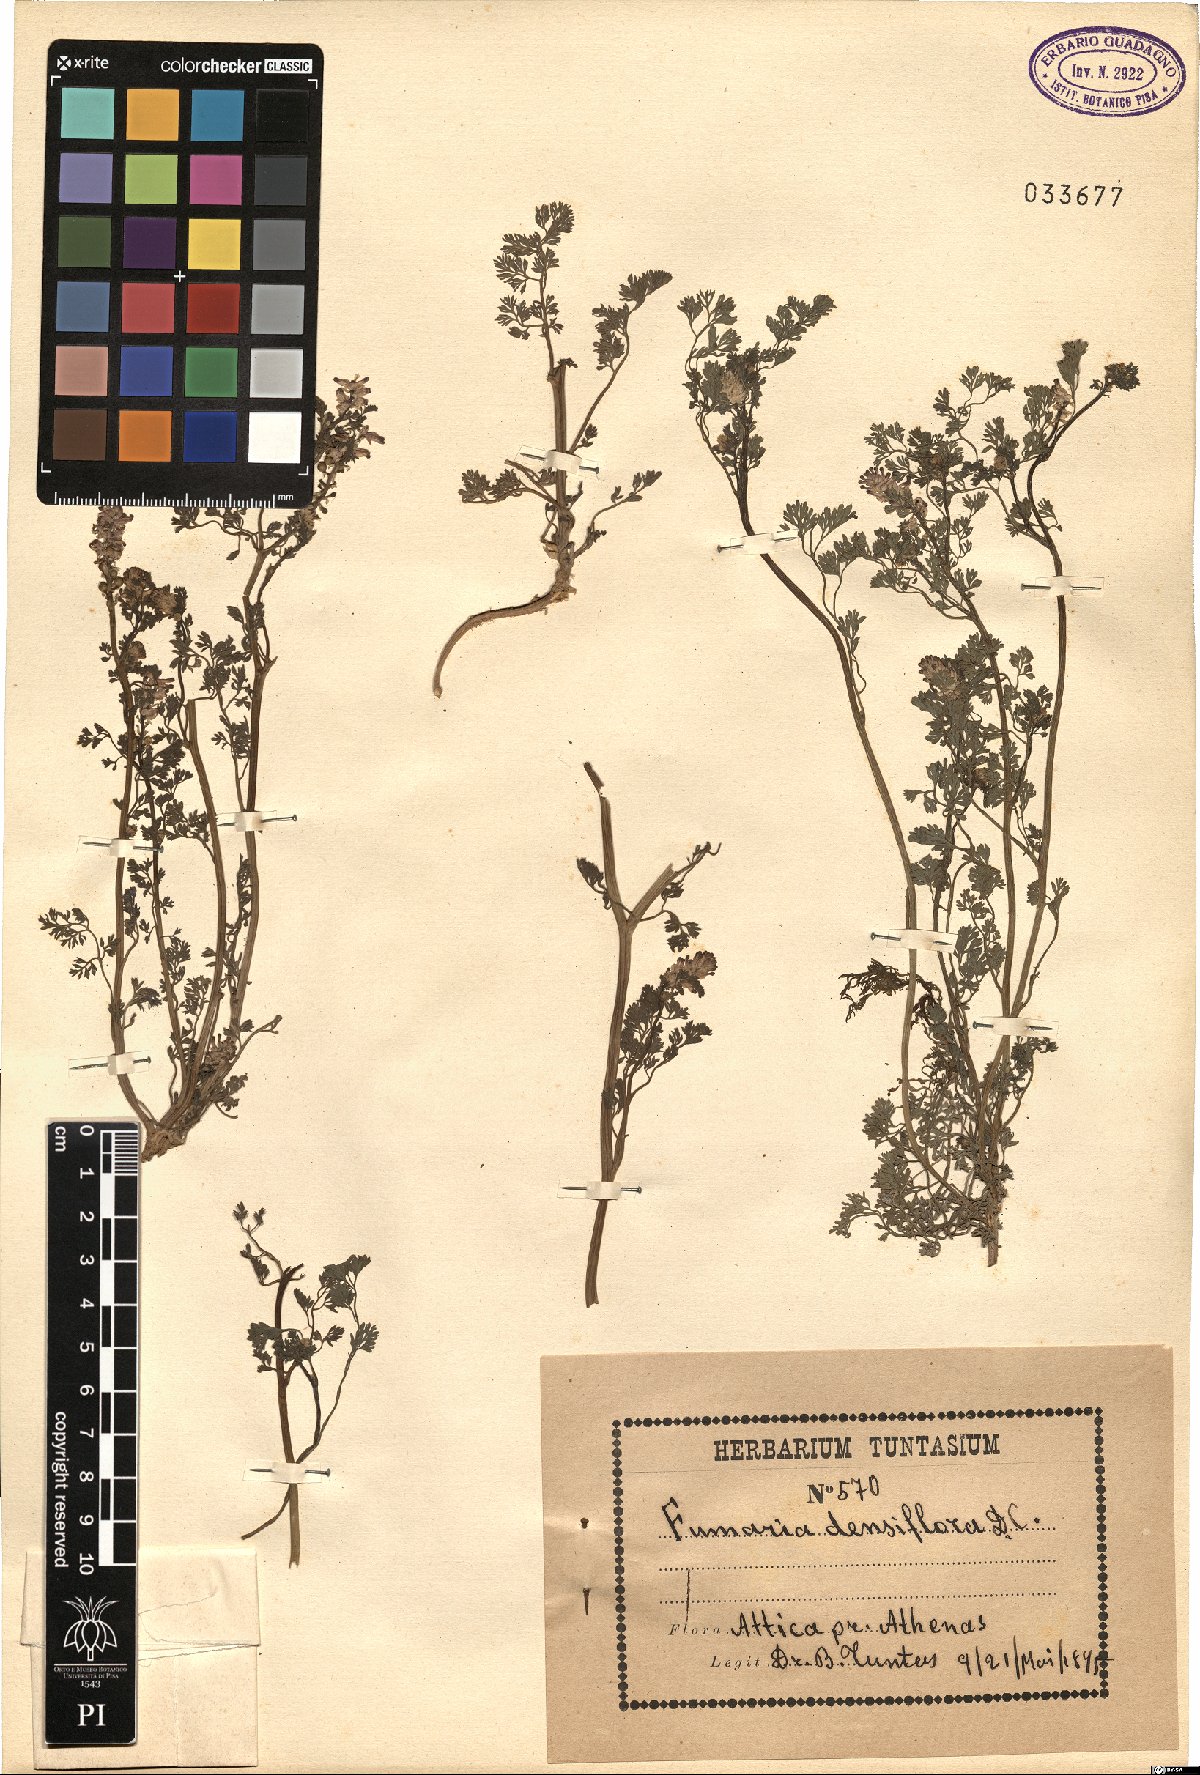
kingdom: Plantae
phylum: Tracheophyta
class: Magnoliopsida
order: Ranunculales
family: Papaveraceae
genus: Fumaria
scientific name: Fumaria densiflora
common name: Dense-flowered fumitory
